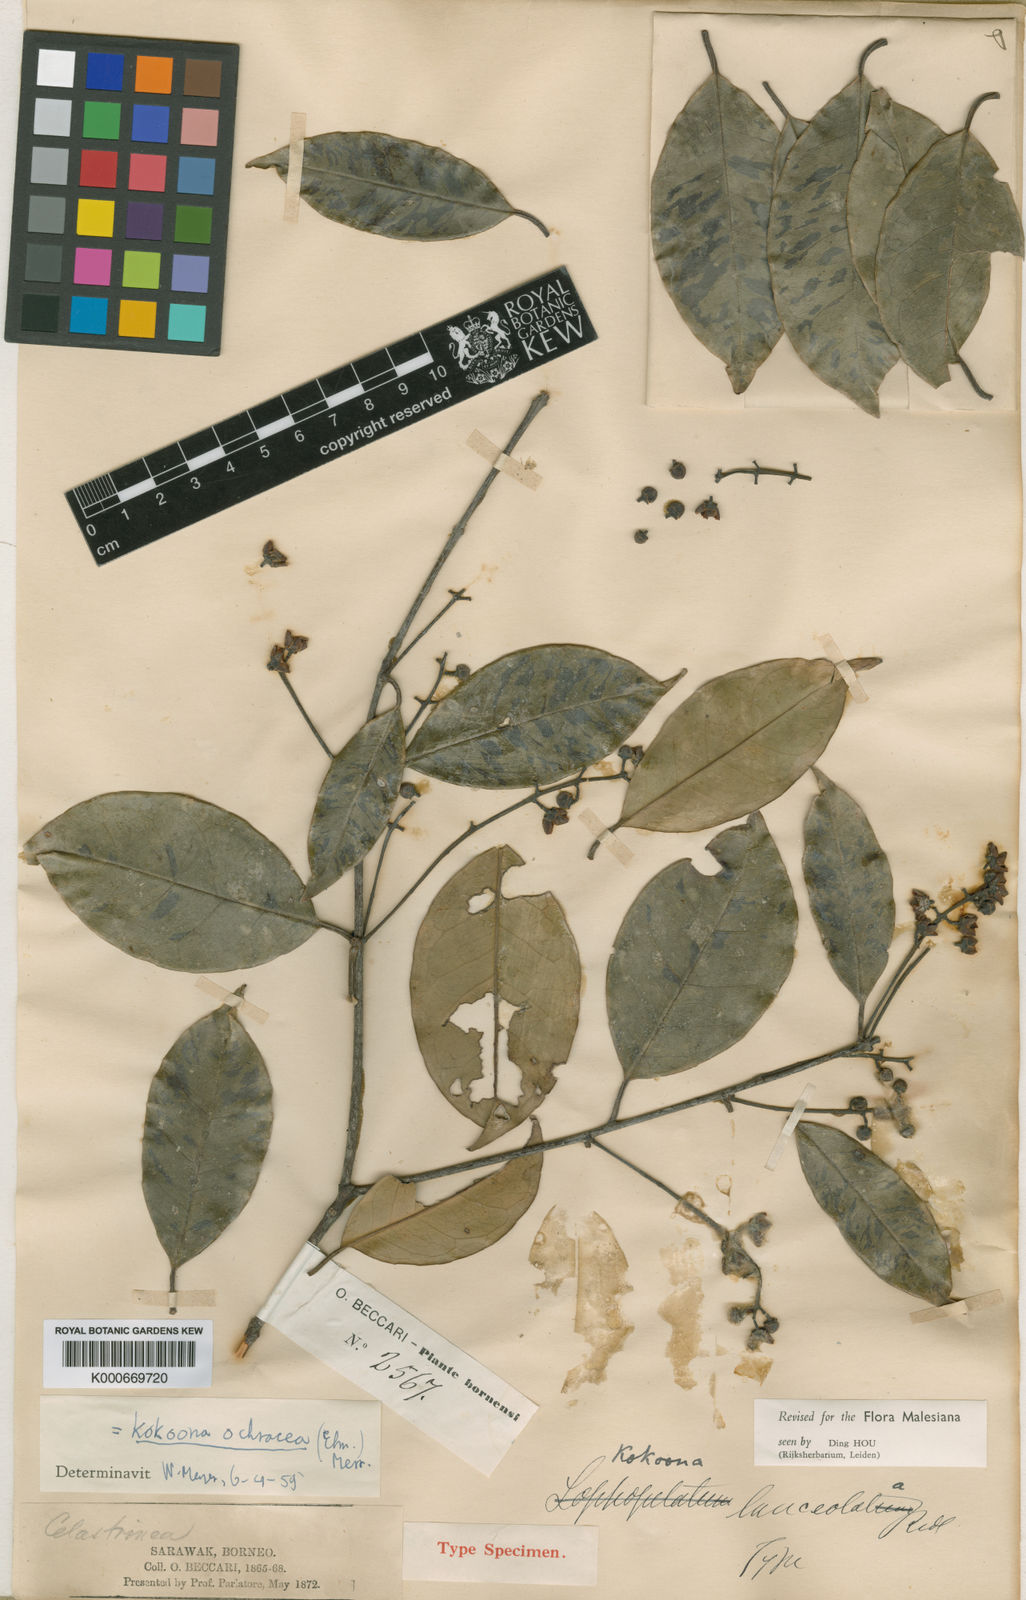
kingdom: Plantae
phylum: Tracheophyta
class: Magnoliopsida
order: Celastrales
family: Celastraceae
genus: Kokoona
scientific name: Kokoona littoralis
